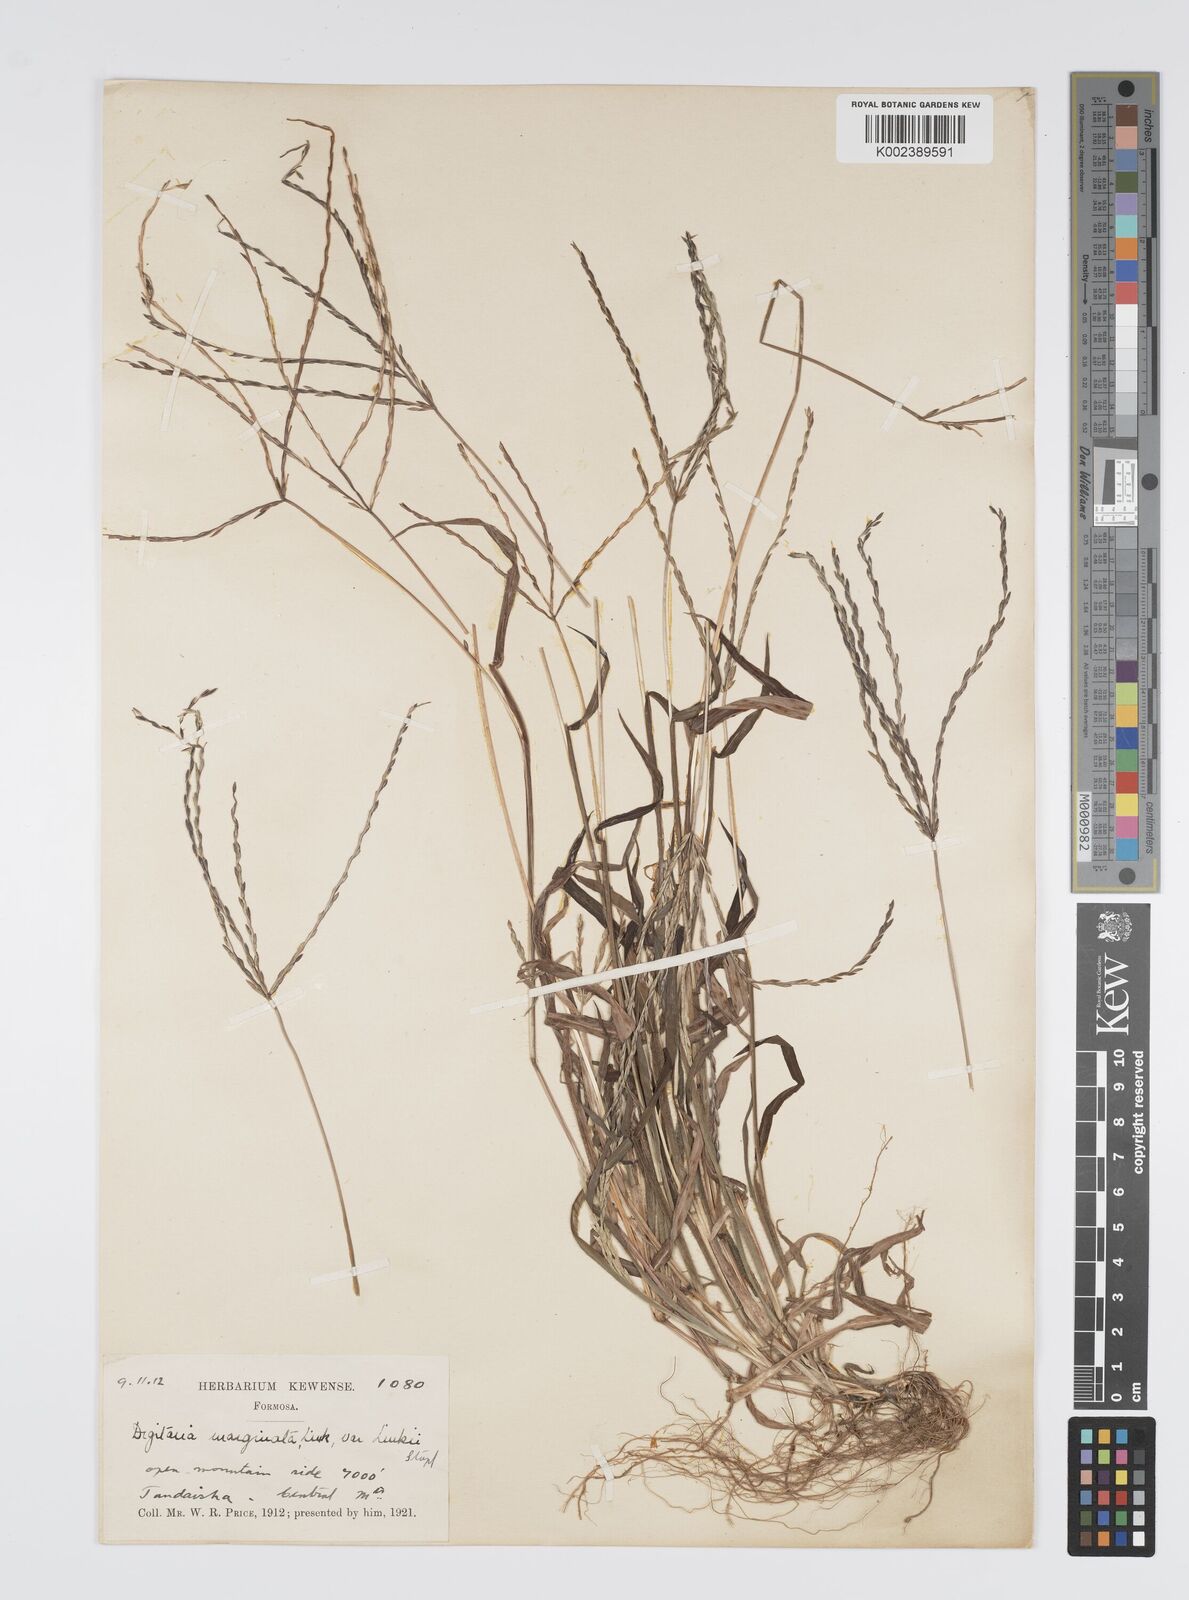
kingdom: Plantae
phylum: Tracheophyta
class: Liliopsida
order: Poales
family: Poaceae
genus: Digitaria
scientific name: Digitaria ciliaris
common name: Tropical finger-grass
